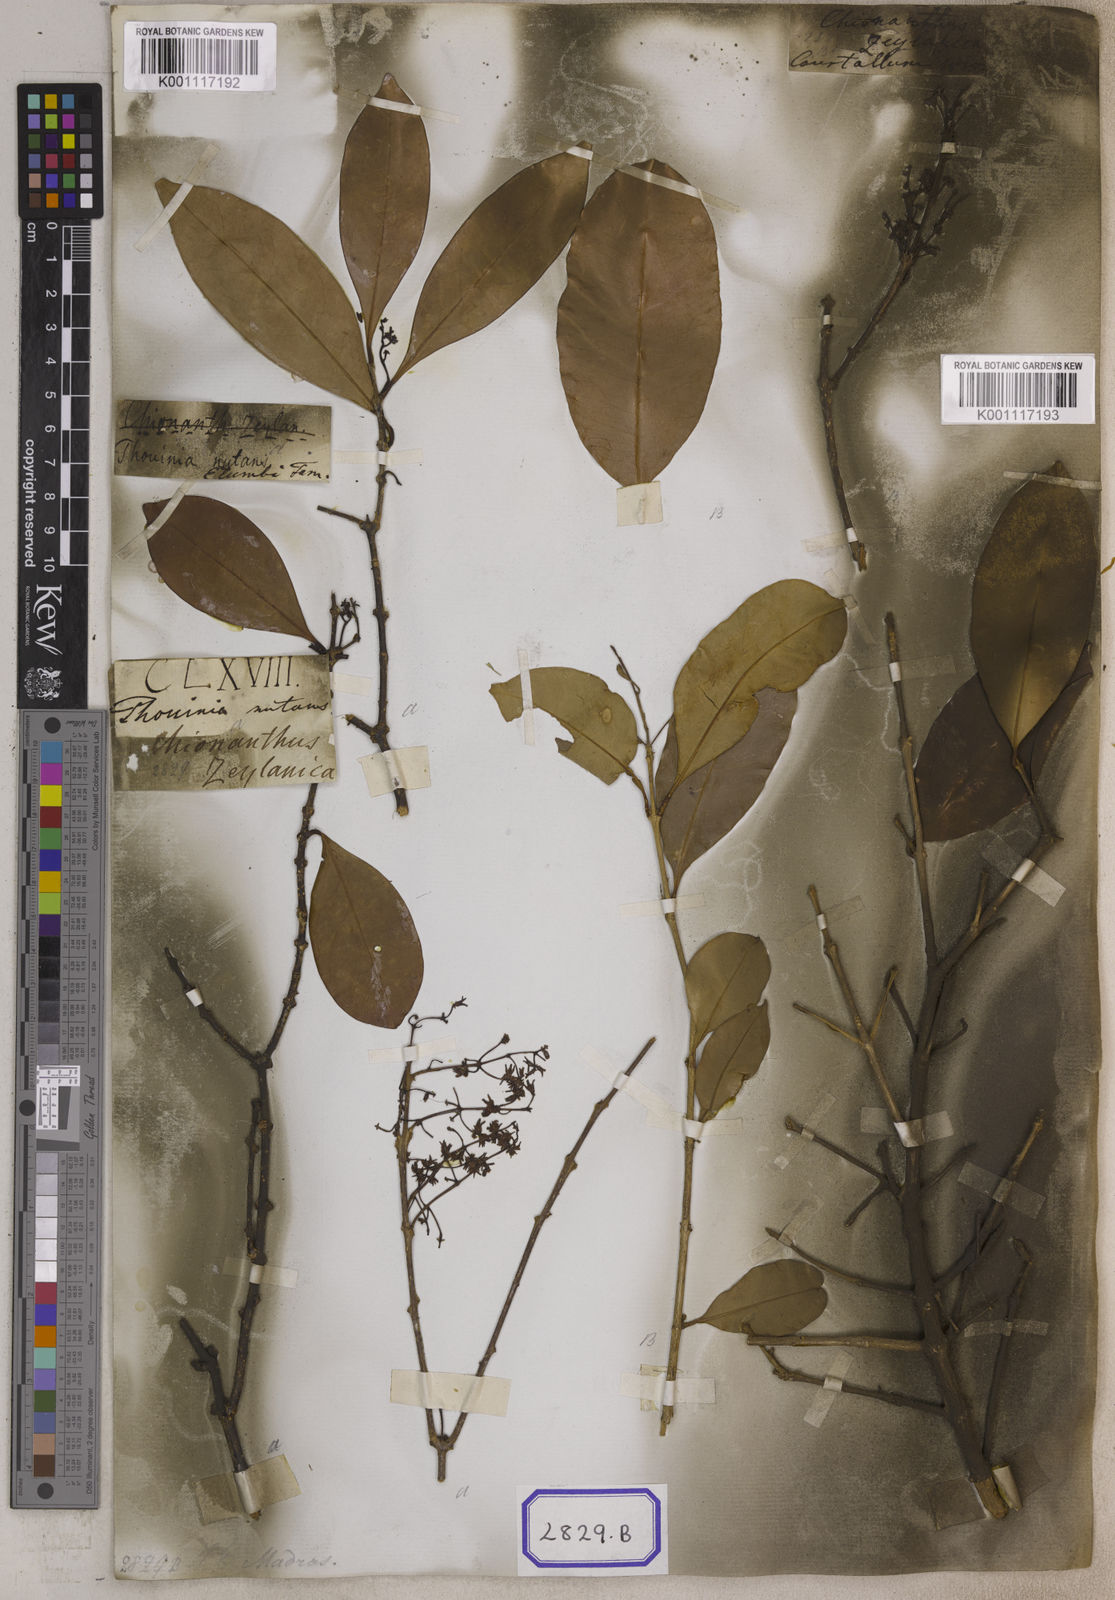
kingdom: Plantae
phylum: Tracheophyta
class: Magnoliopsida
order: Lamiales
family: Oleaceae
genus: Chionanthus
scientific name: Chionanthus purpureus
